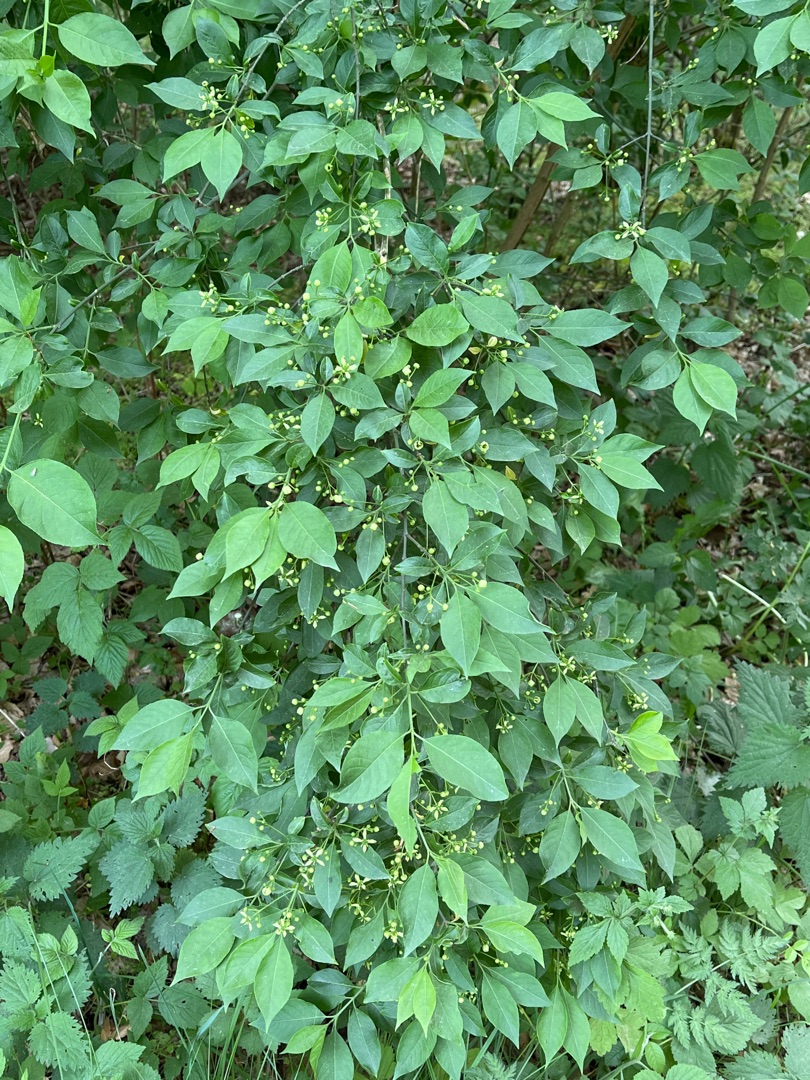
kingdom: Plantae
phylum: Tracheophyta
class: Magnoliopsida
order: Celastrales
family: Celastraceae
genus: Euonymus
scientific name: Euonymus europaeus
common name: Benved
